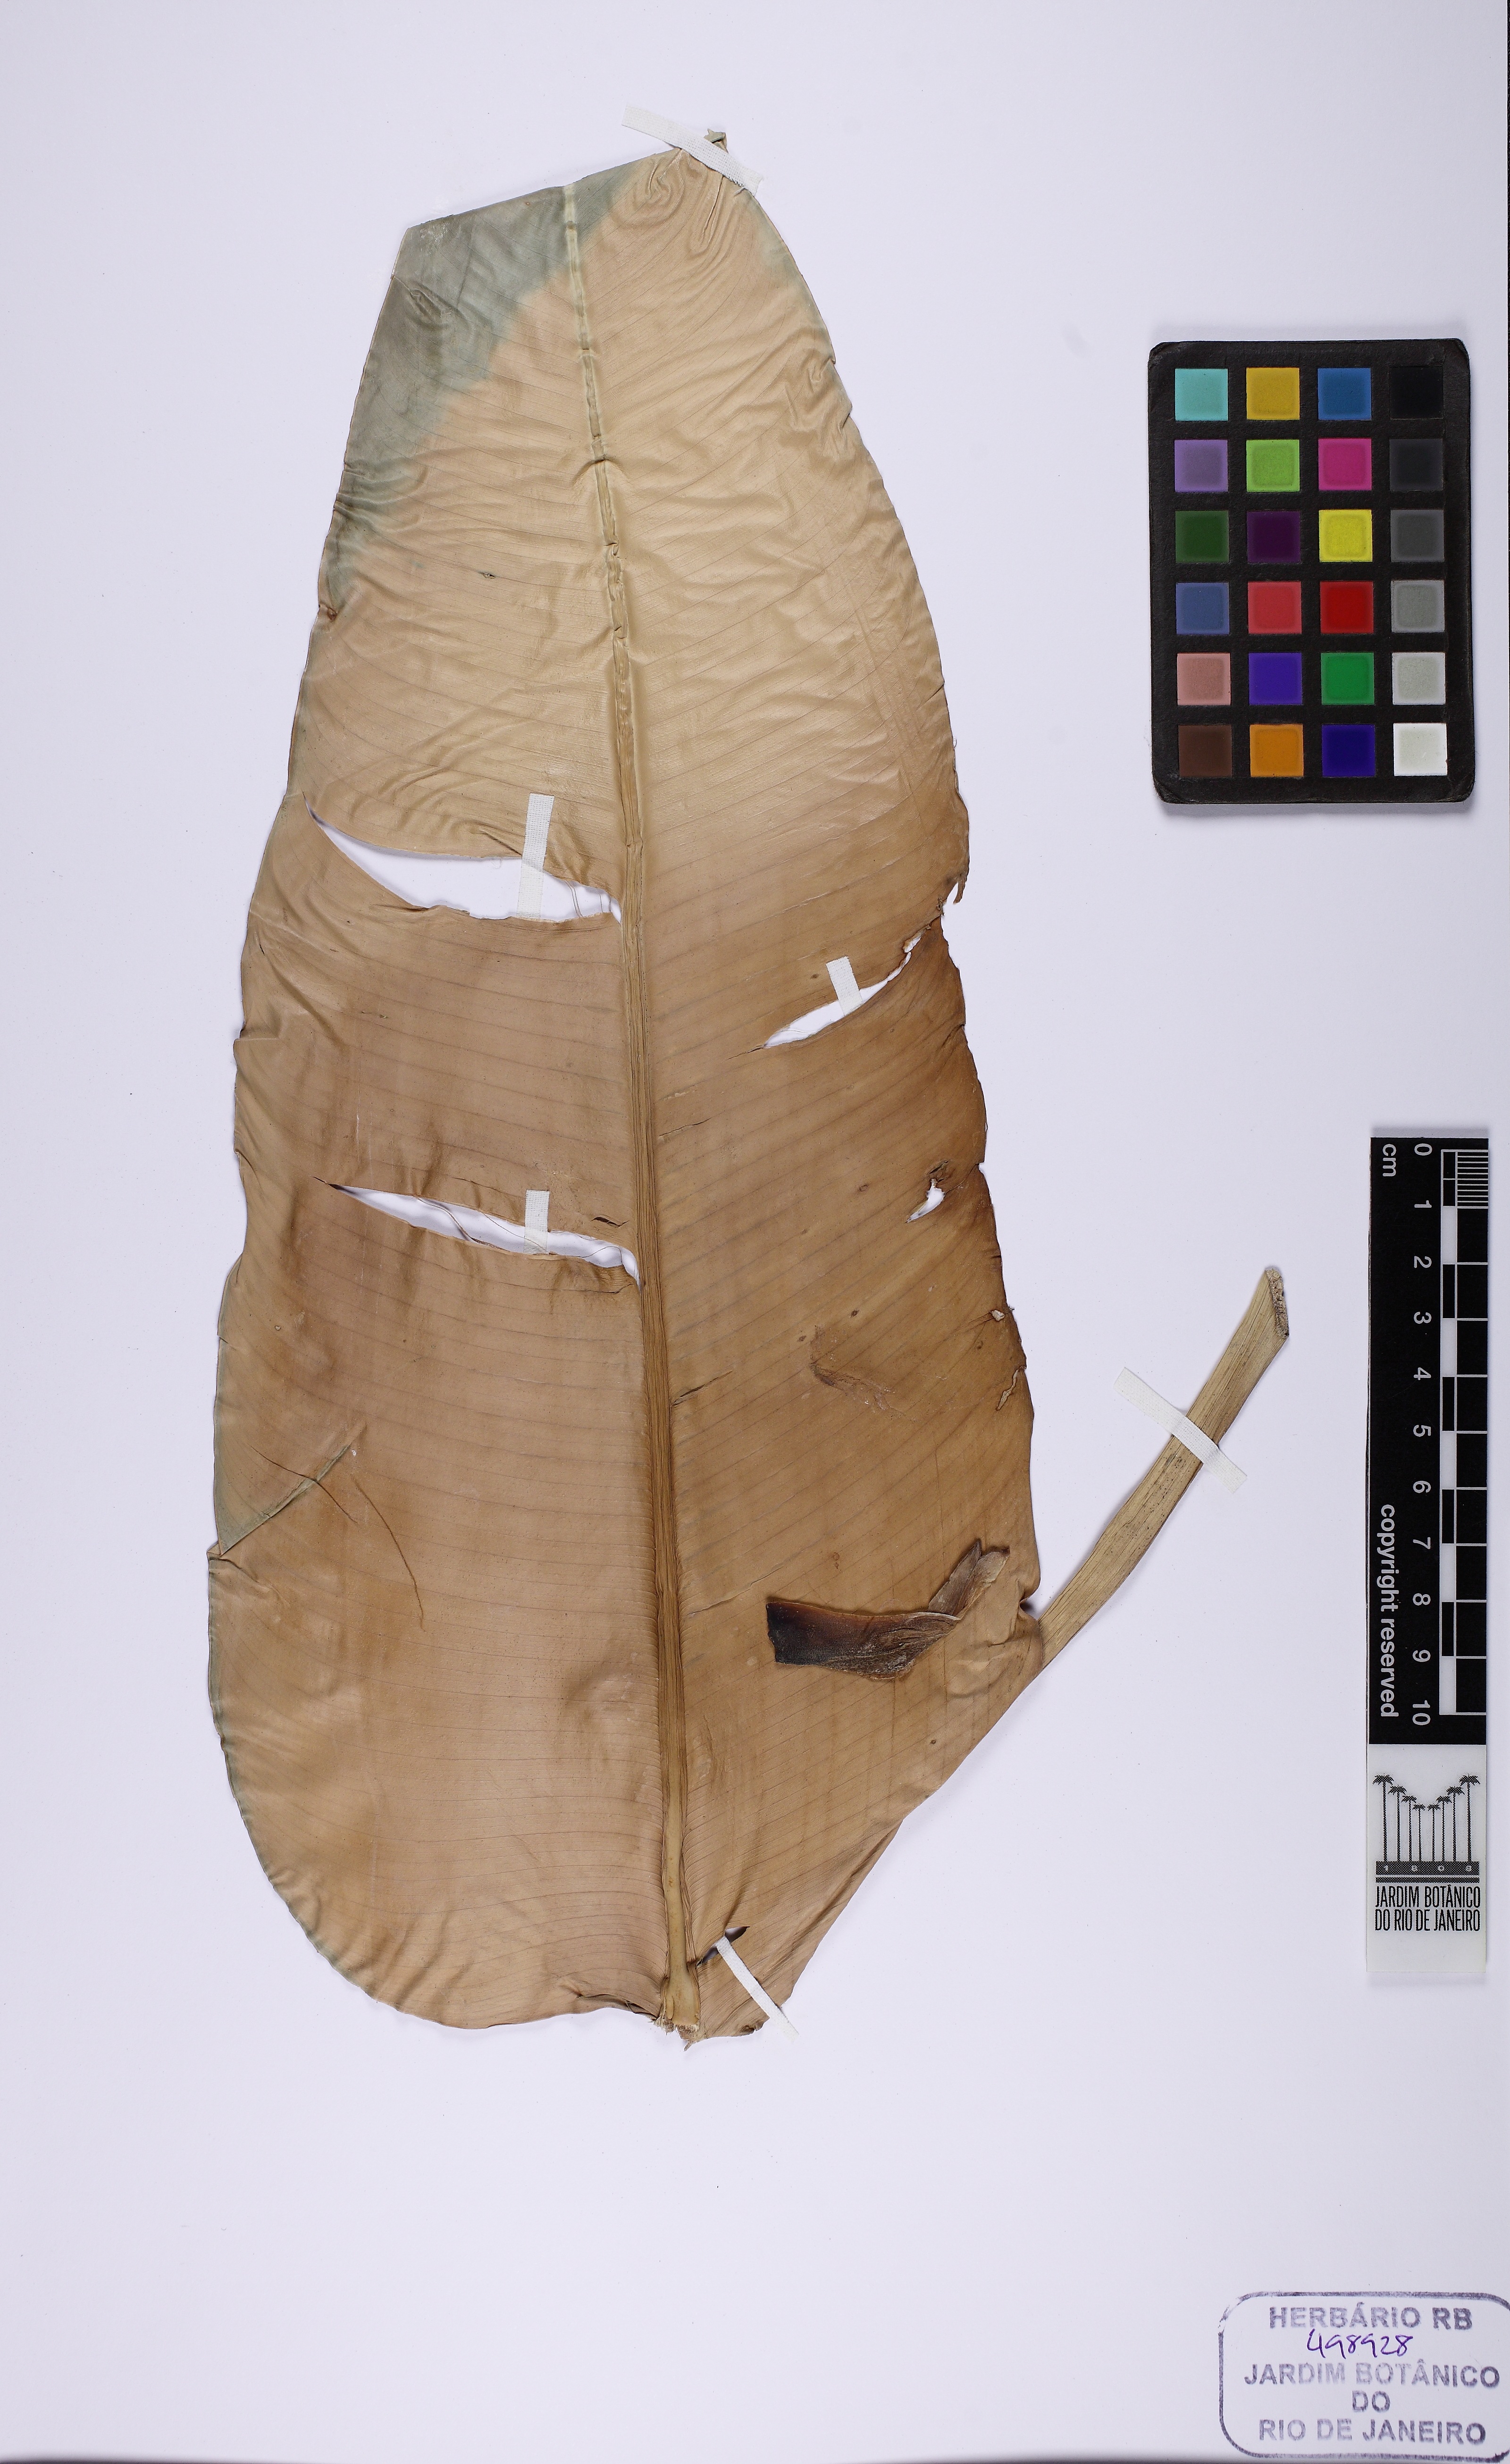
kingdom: Plantae
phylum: Tracheophyta
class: Liliopsida
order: Zingiberales
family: Heliconiaceae
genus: Heliconia
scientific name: Heliconia marginata
